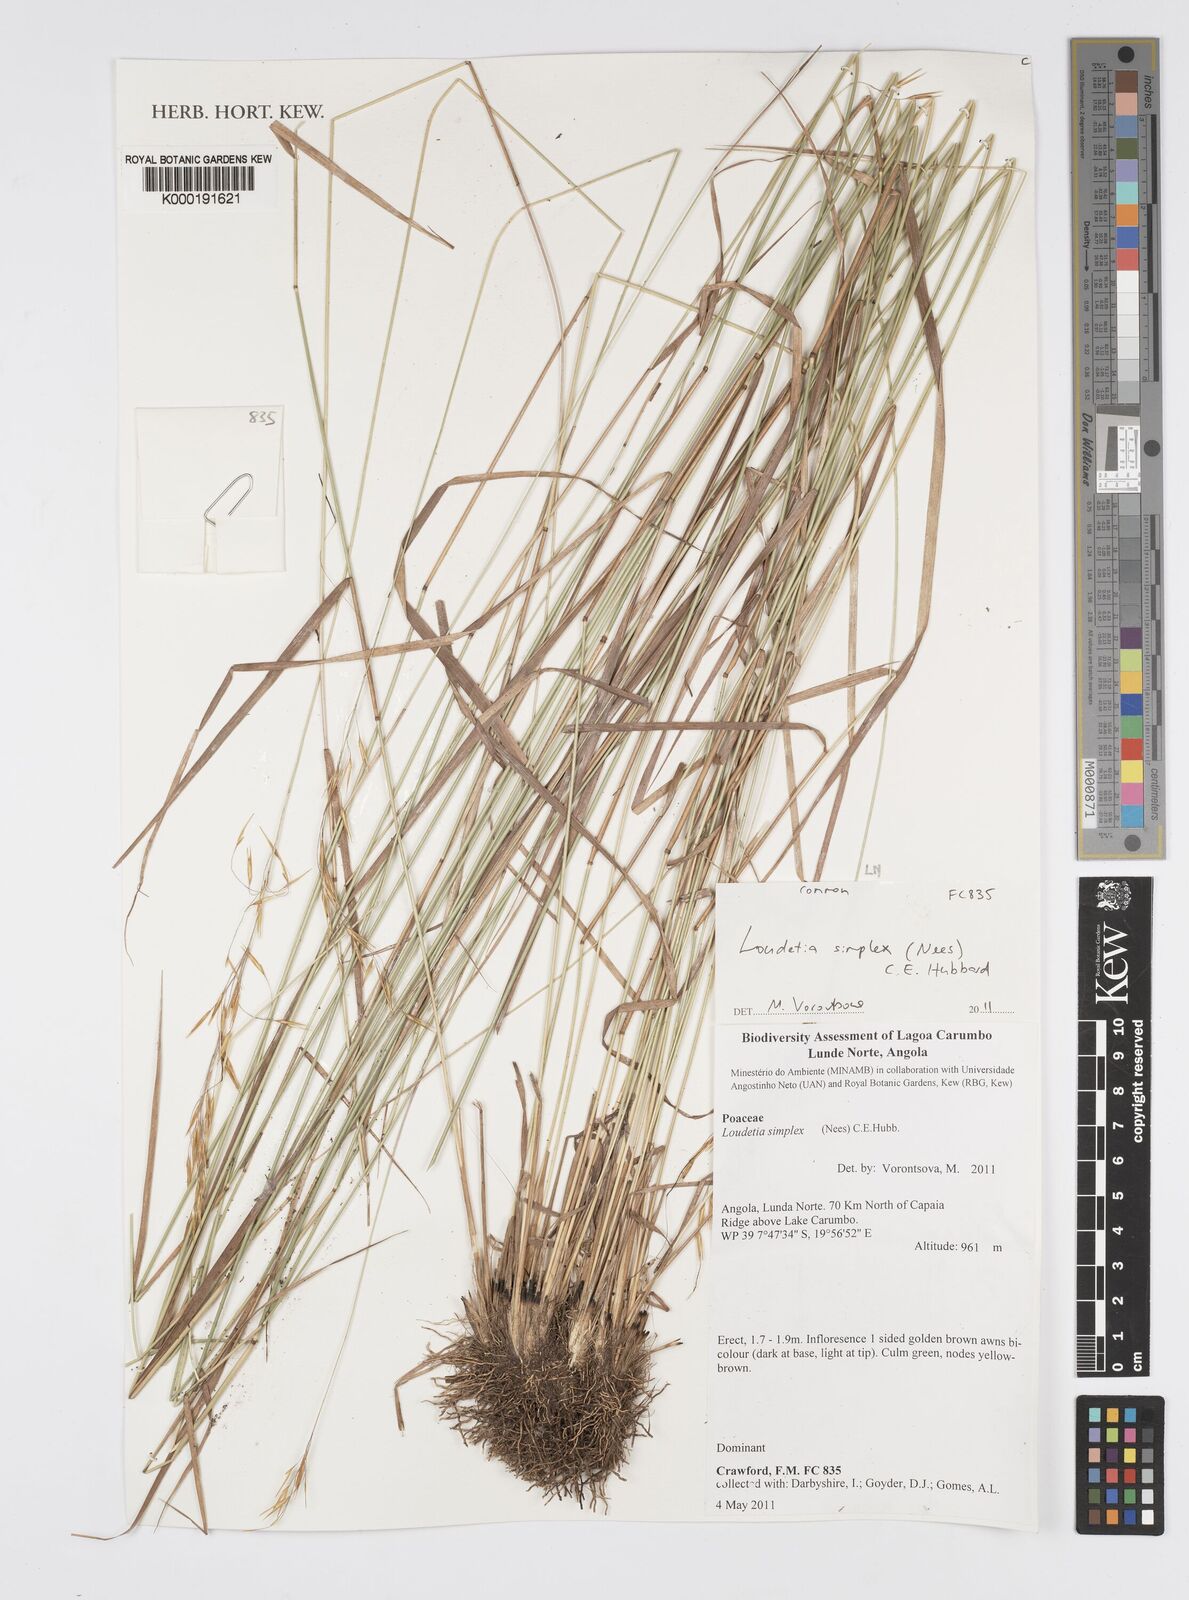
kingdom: Plantae
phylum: Tracheophyta
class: Liliopsida
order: Poales
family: Poaceae
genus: Loudetia
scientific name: Loudetia simplex
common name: Common russet grass
